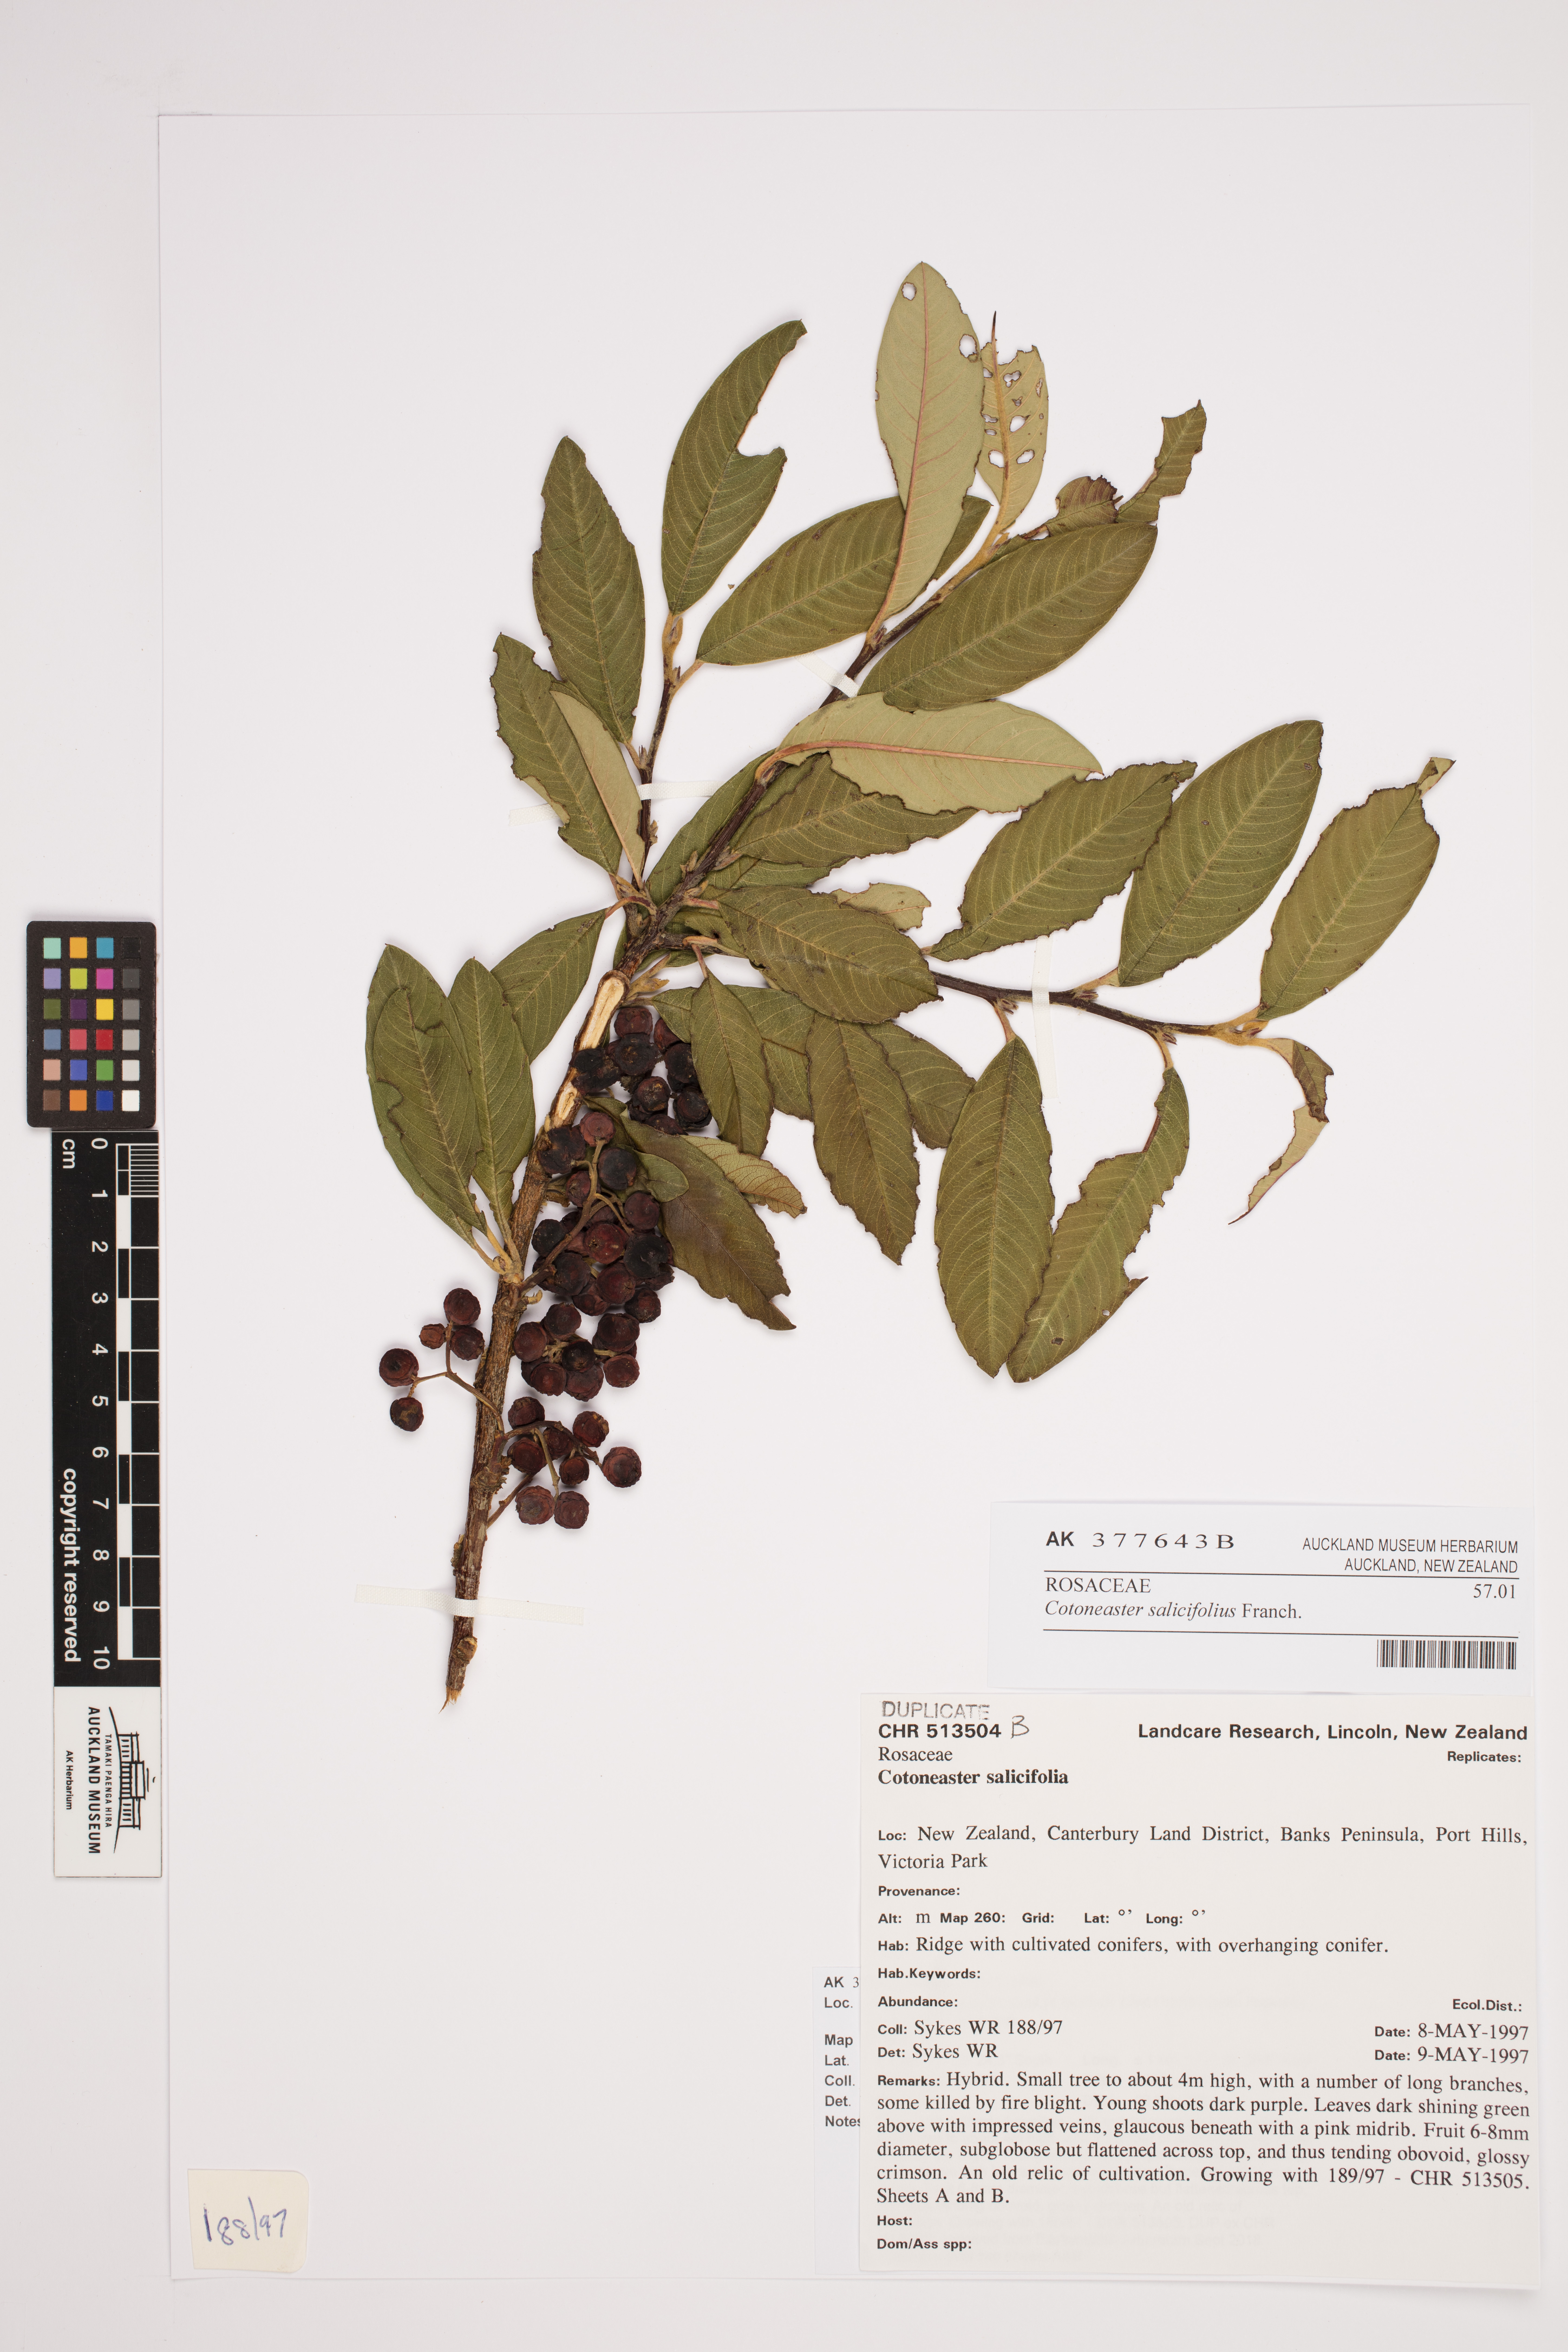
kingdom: Plantae
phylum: Tracheophyta
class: Magnoliopsida
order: Rosales
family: Rosaceae
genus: Cotoneaster
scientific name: Cotoneaster salicifolius
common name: Willow-leaved cotoneaster
